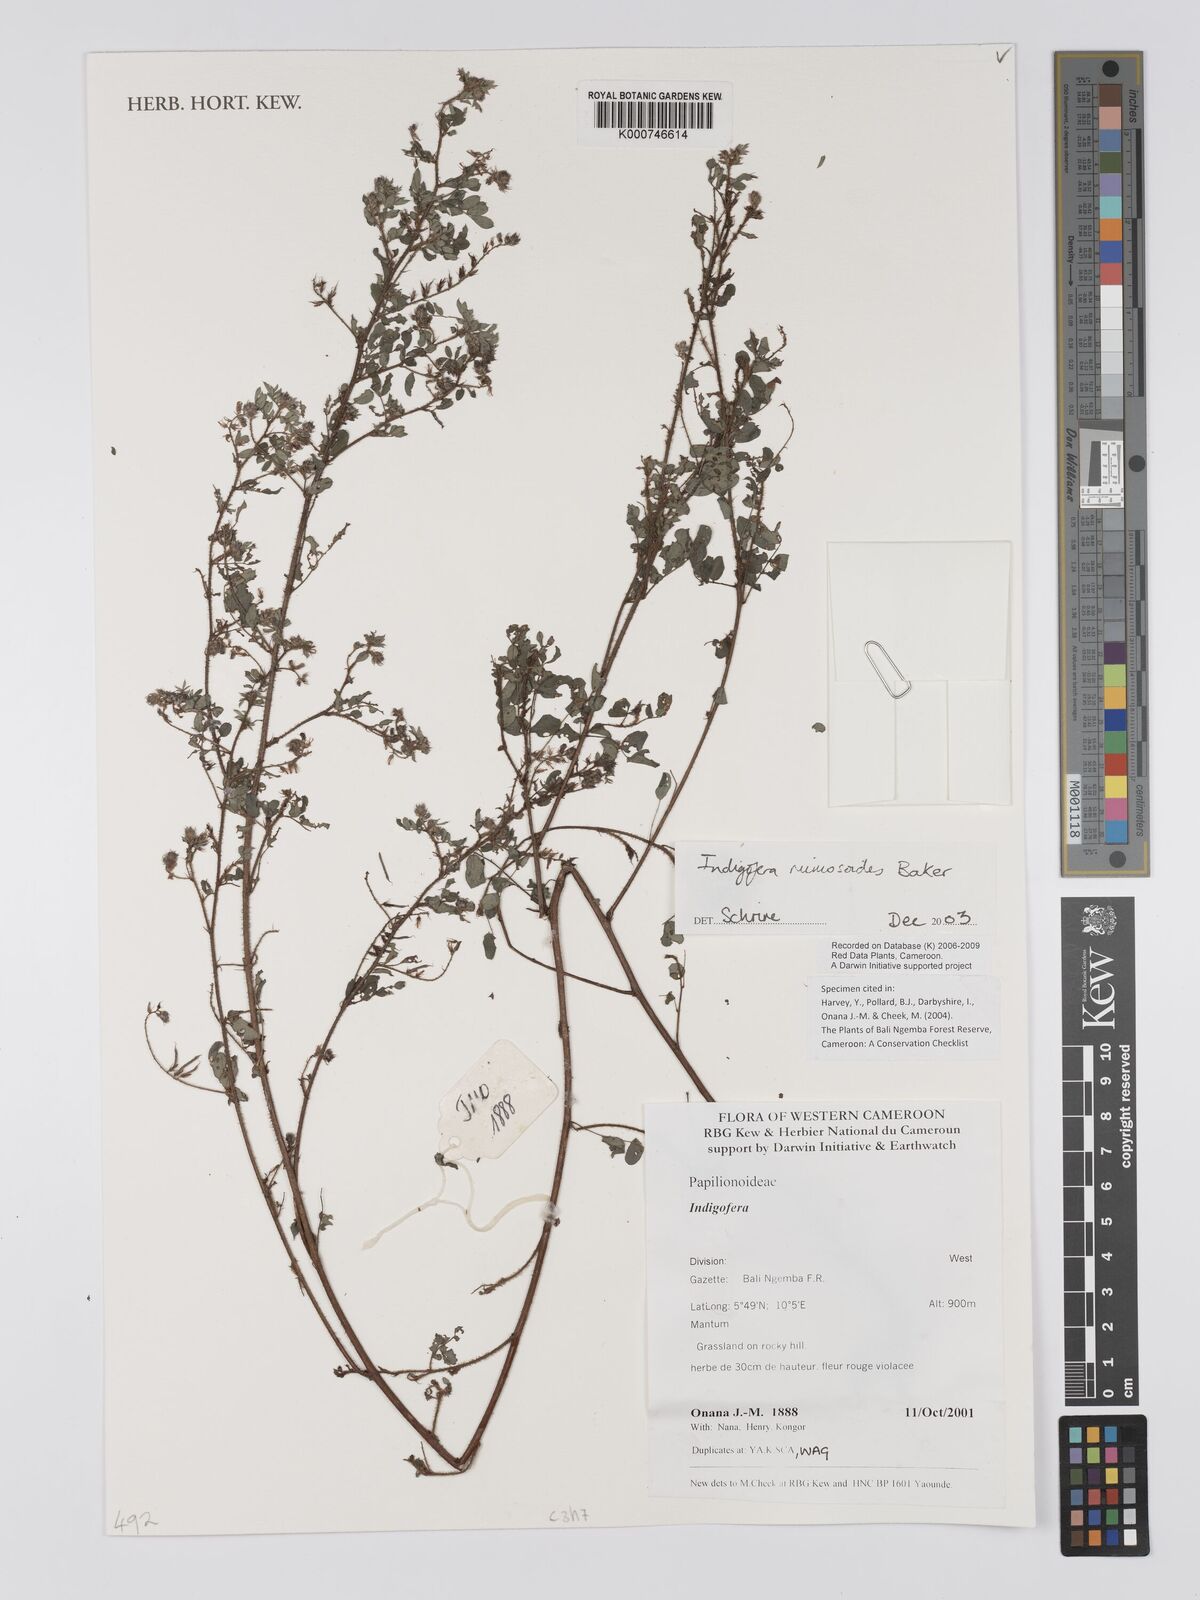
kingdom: Plantae
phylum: Tracheophyta
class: Magnoliopsida
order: Fabales
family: Fabaceae
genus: Indigofera
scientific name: Indigofera mimosoides
